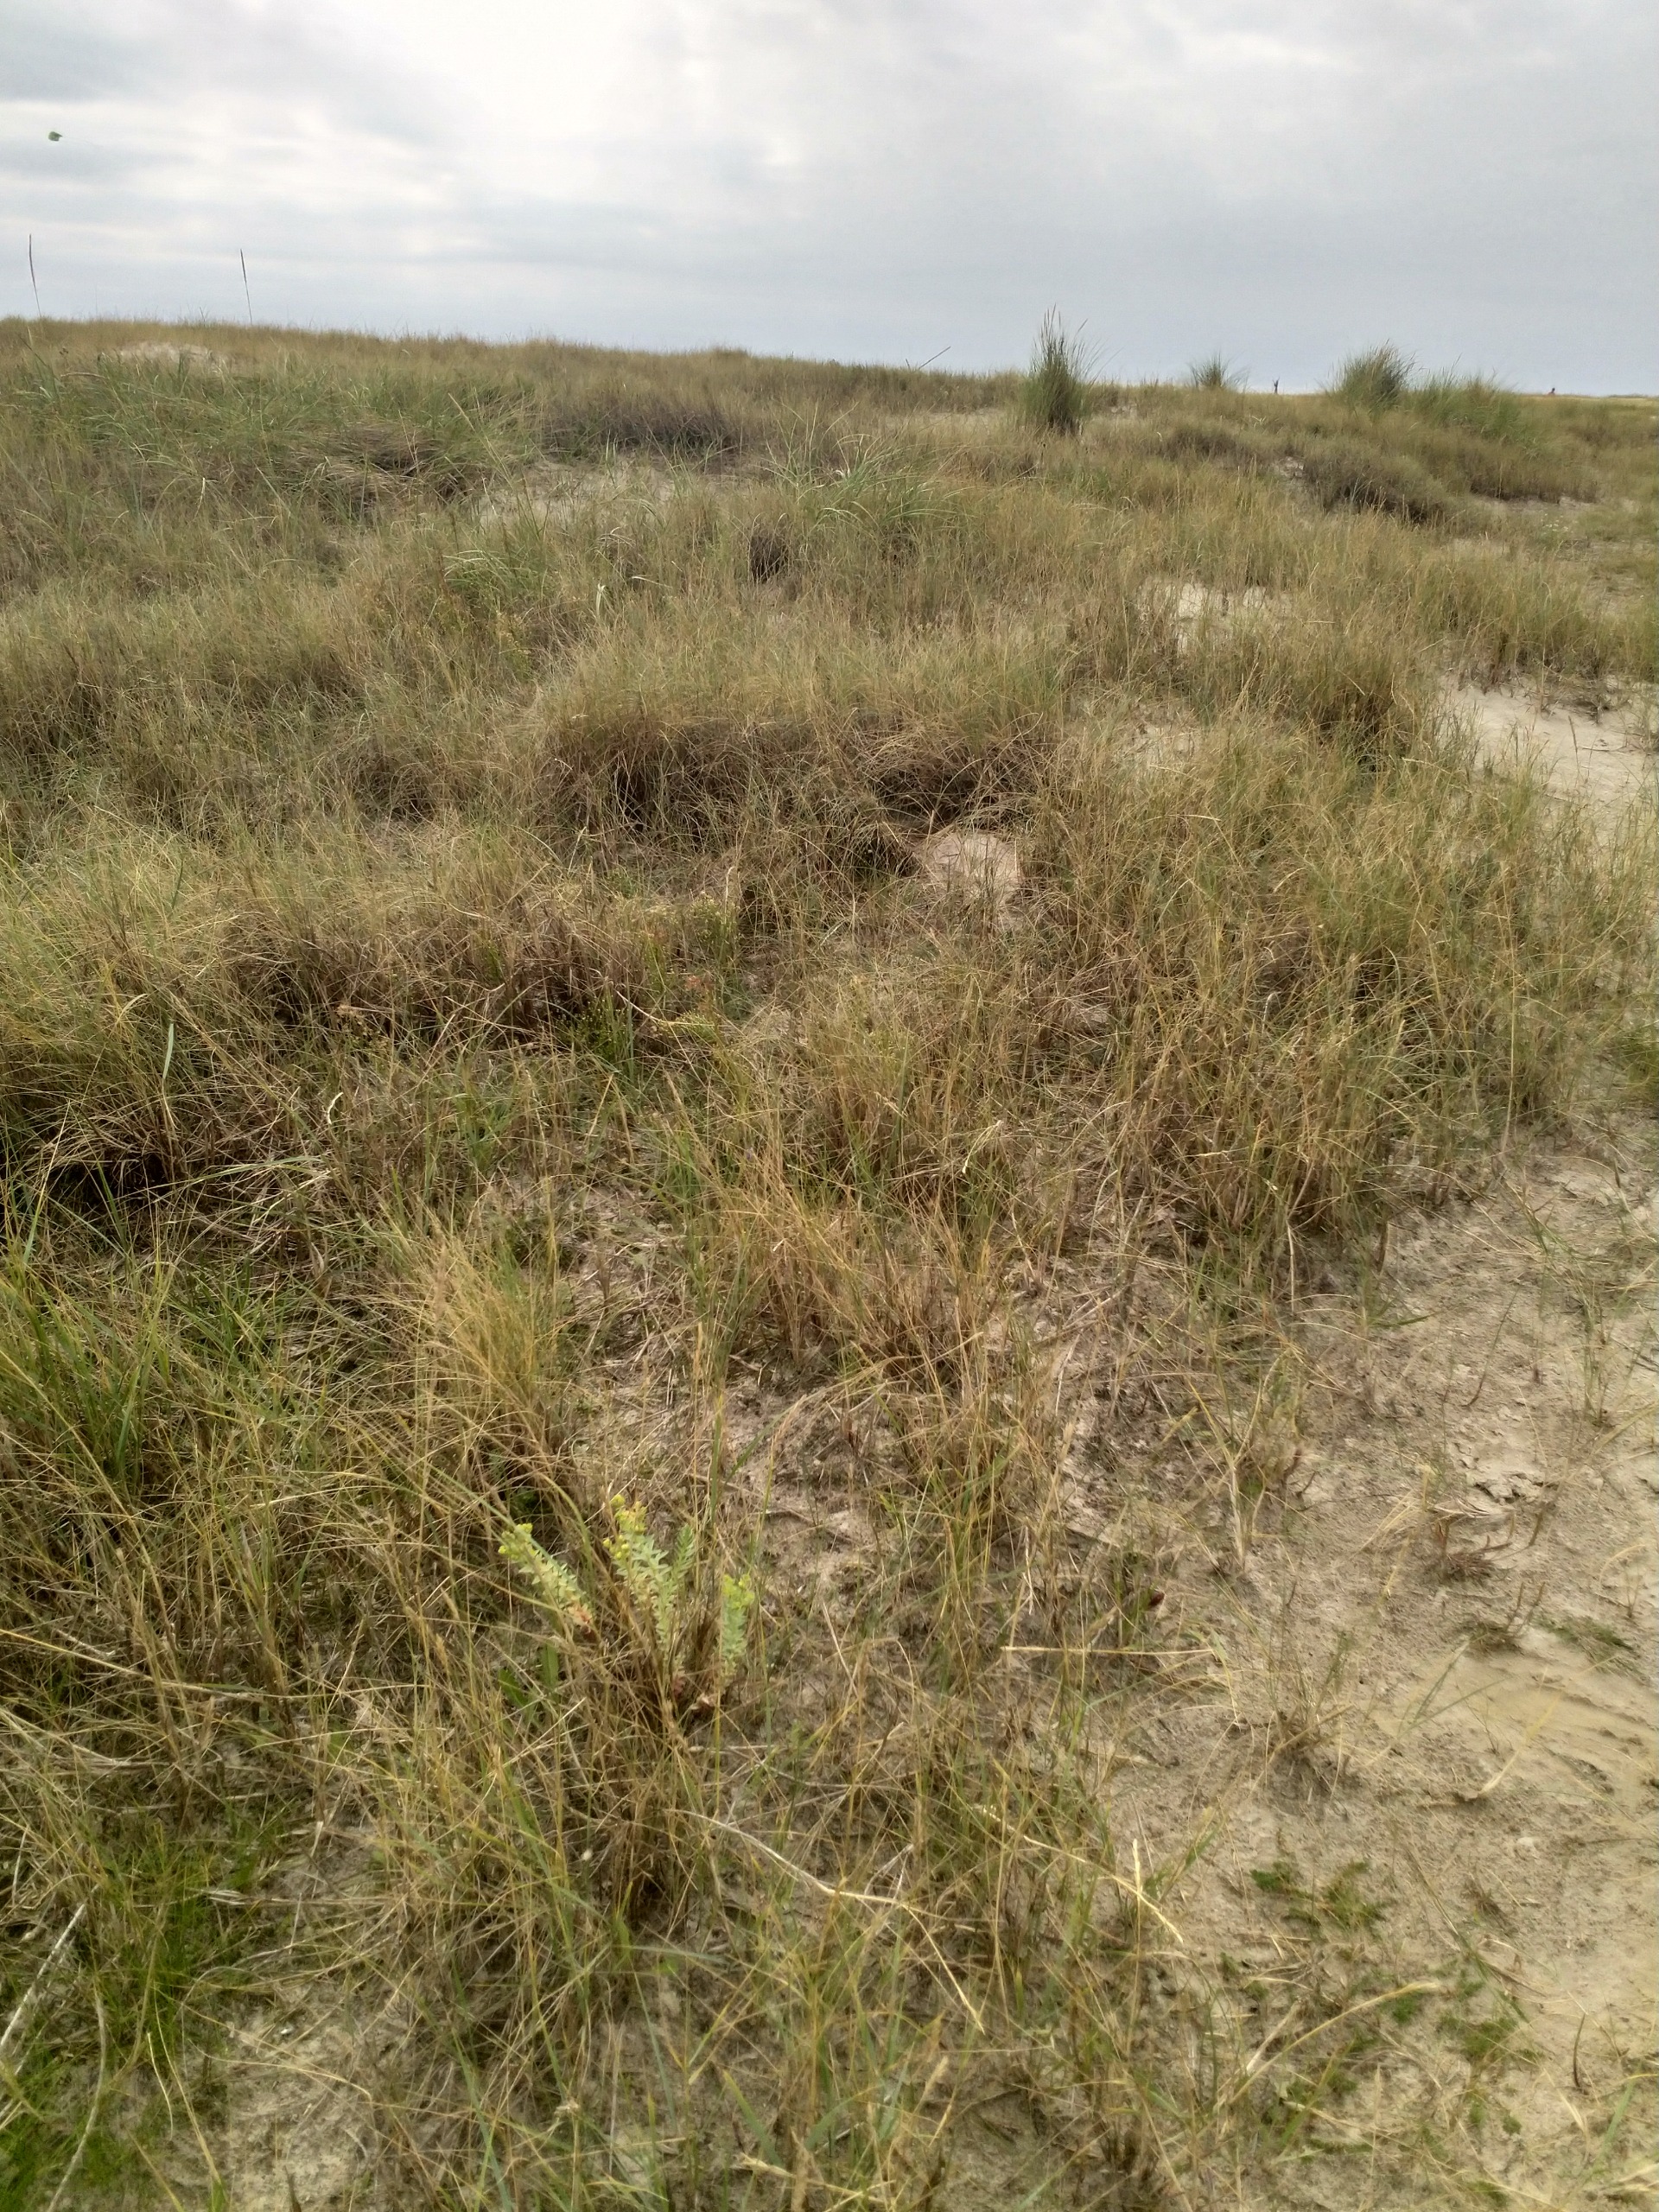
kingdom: Plantae
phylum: Tracheophyta
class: Magnoliopsida
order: Malpighiales
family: Euphorbiaceae
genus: Euphorbia
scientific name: Euphorbia paralias
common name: Kyst-vortemælk
